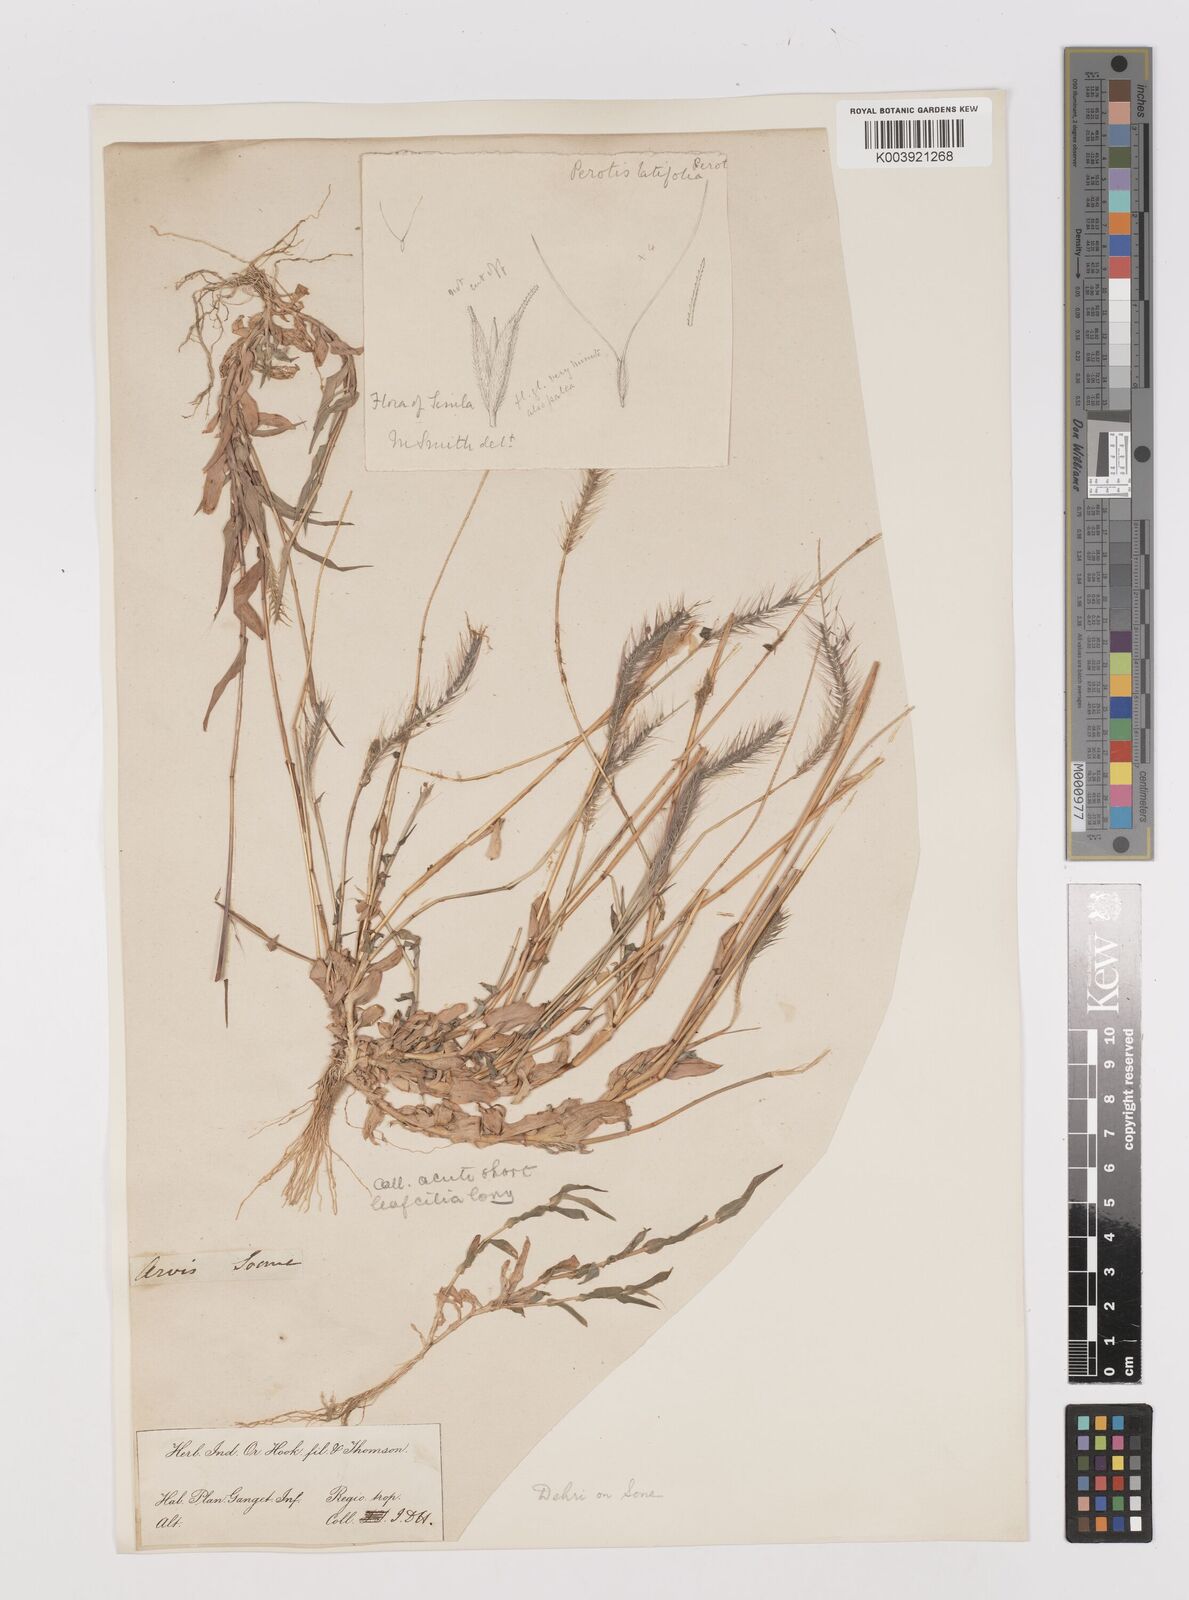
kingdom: Plantae
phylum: Tracheophyta
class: Liliopsida
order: Poales
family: Poaceae
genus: Perotis
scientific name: Perotis hordeiformis
